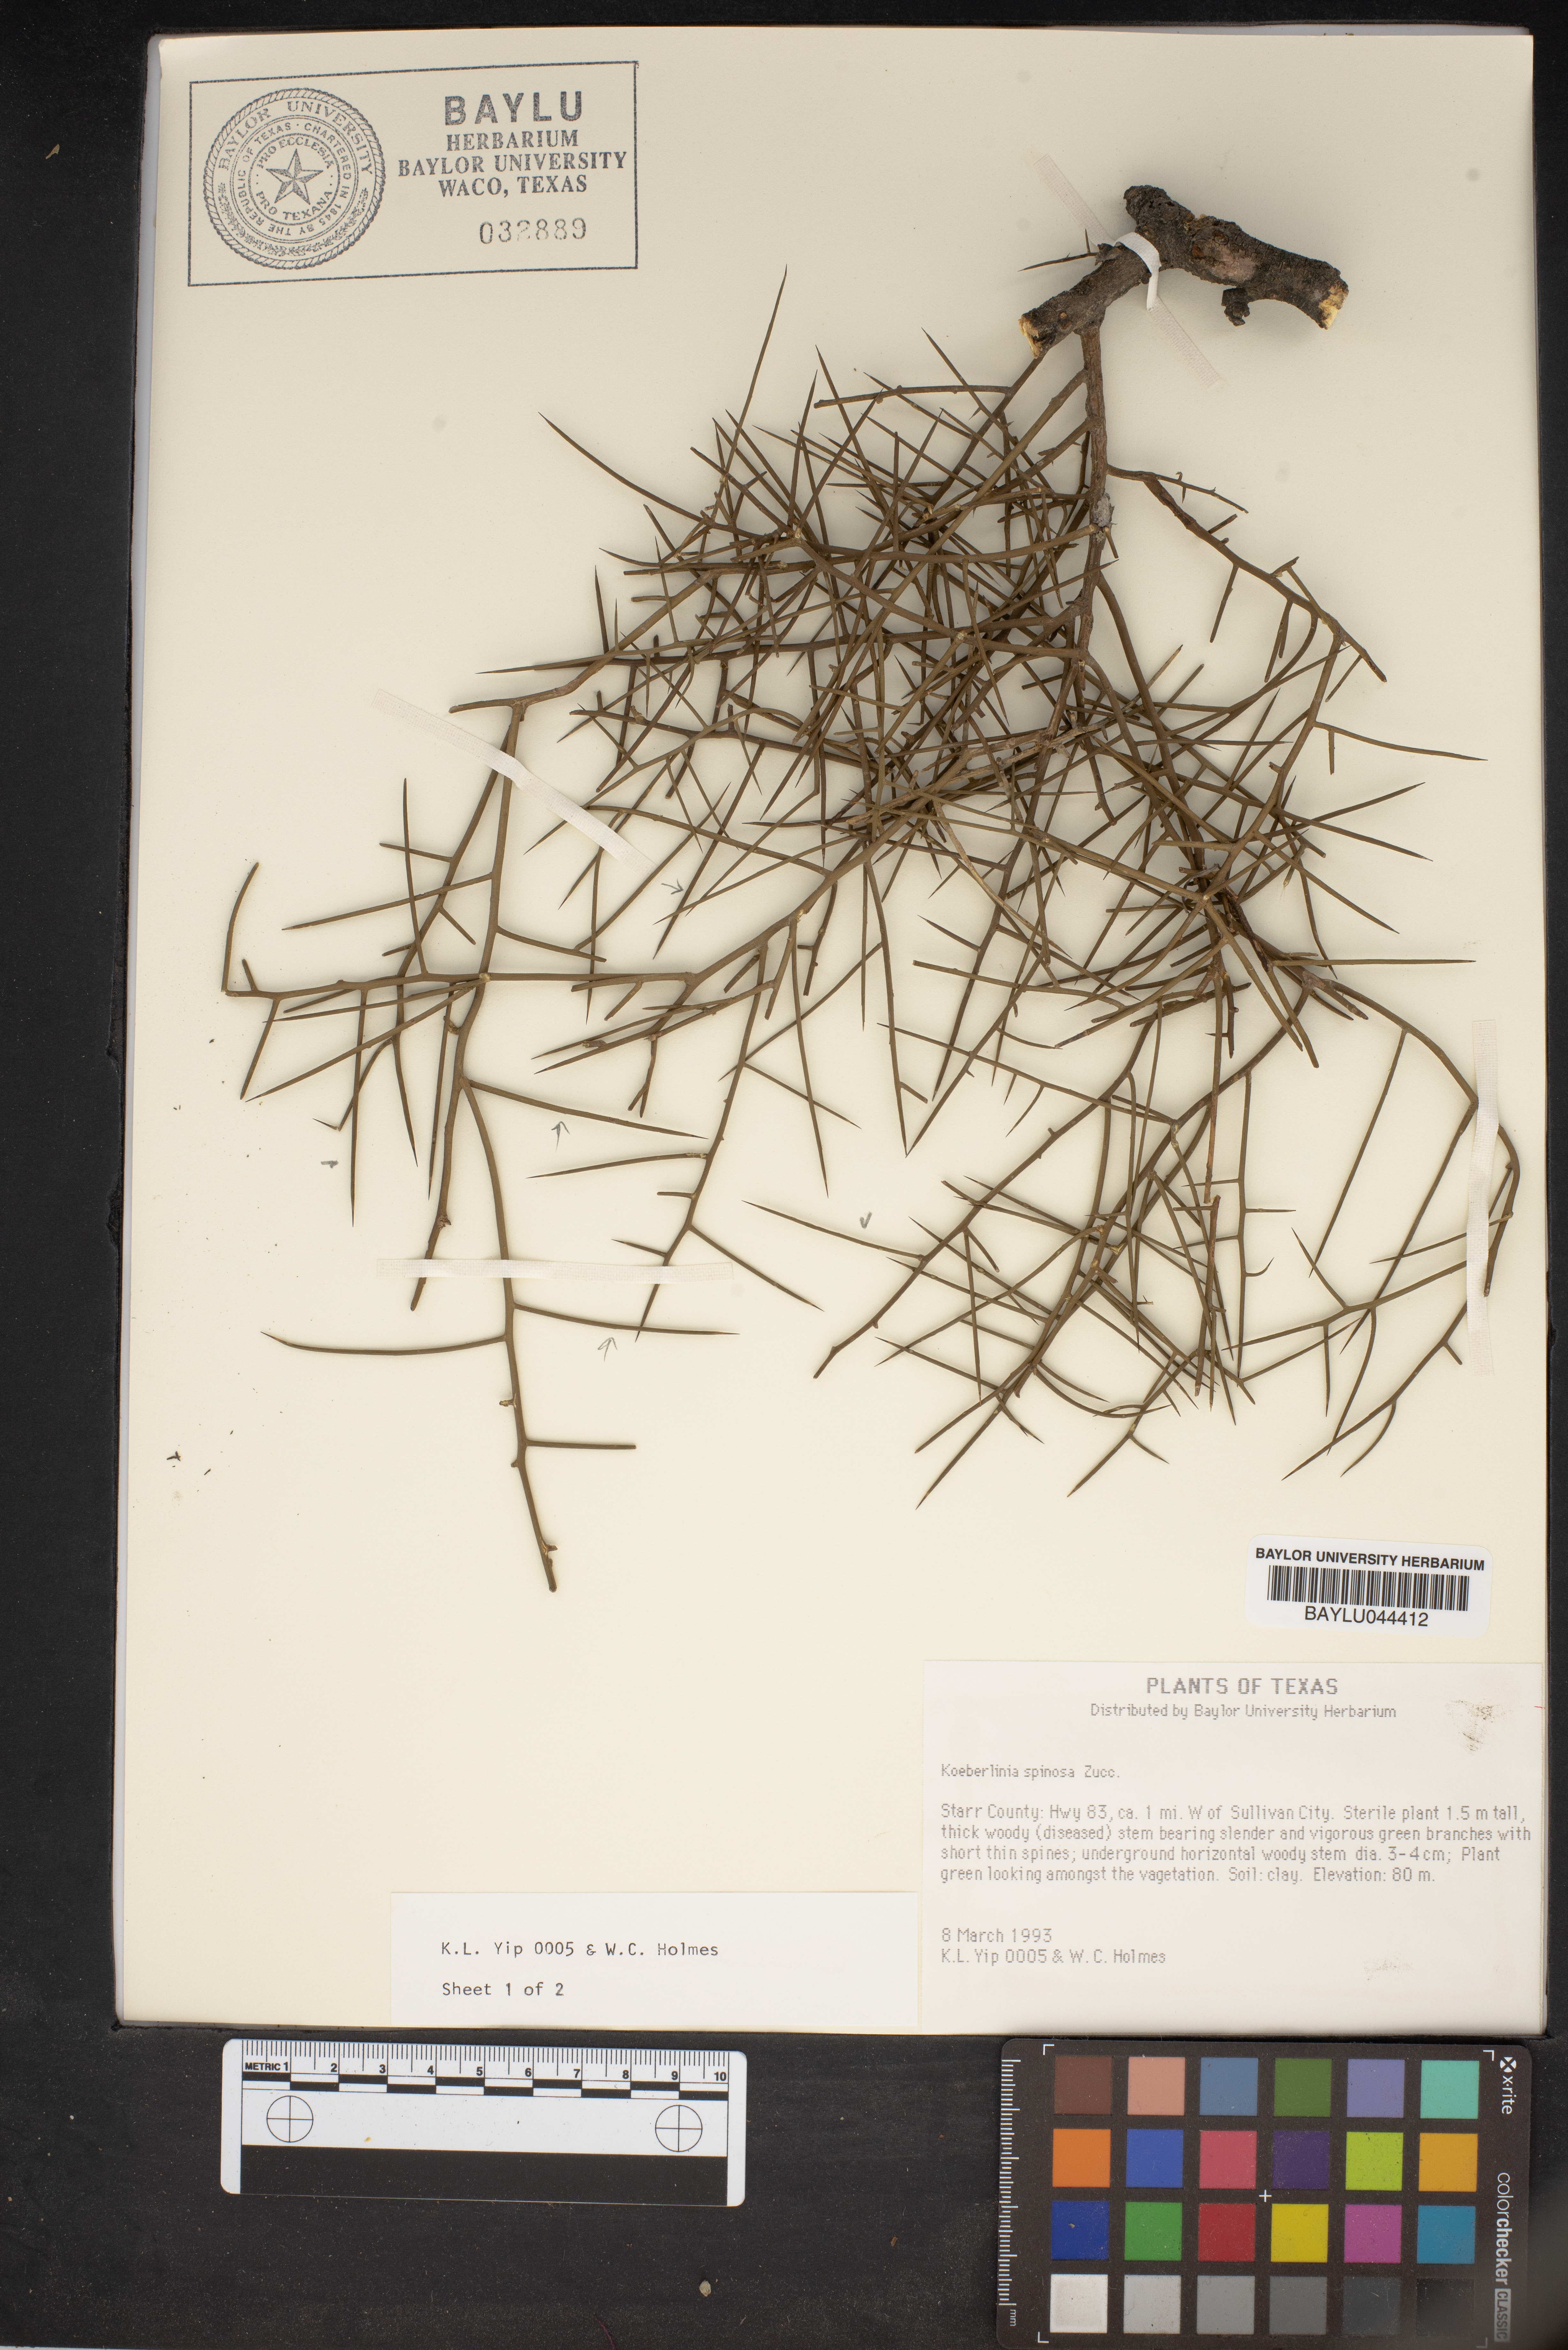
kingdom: Plantae
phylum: Tracheophyta
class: Magnoliopsida
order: Brassicales
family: Koeberliniaceae
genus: Koeberlinia
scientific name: Koeberlinia spinosa
